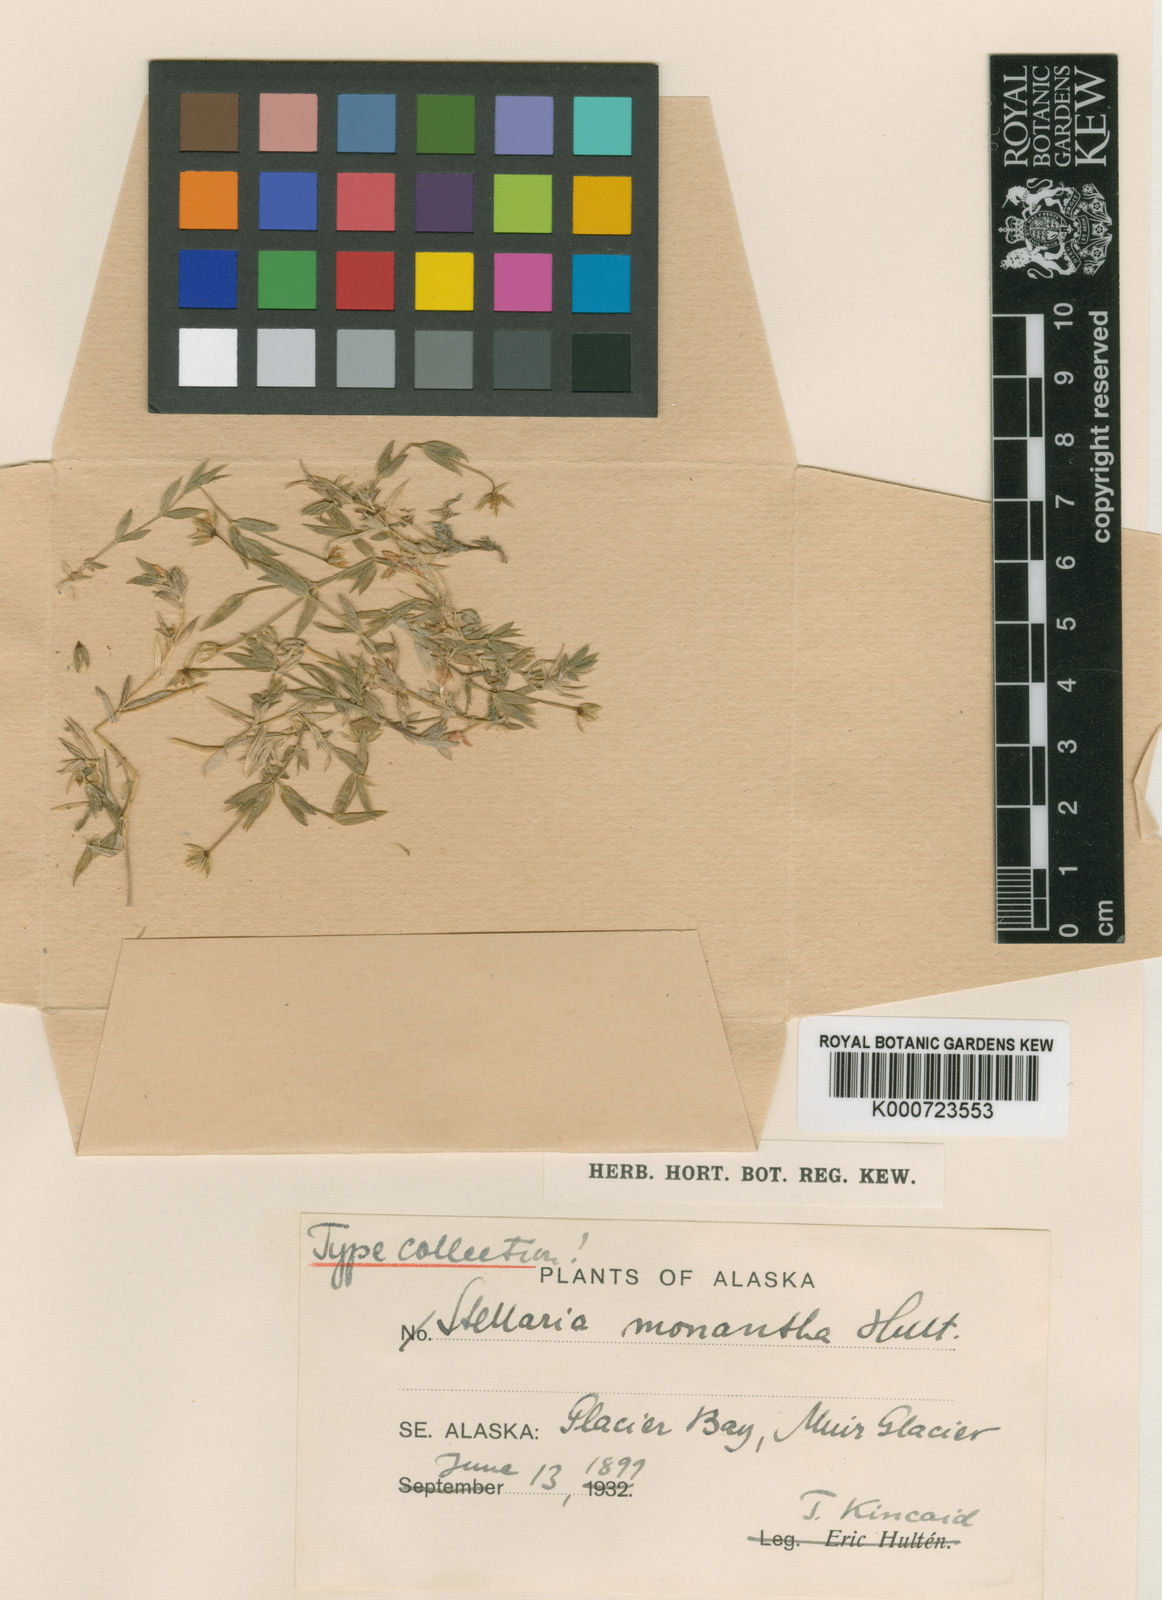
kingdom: Plantae
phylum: Tracheophyta
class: Magnoliopsida
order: Caryophyllales
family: Caryophyllaceae
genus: Stellaria
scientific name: Stellaria
